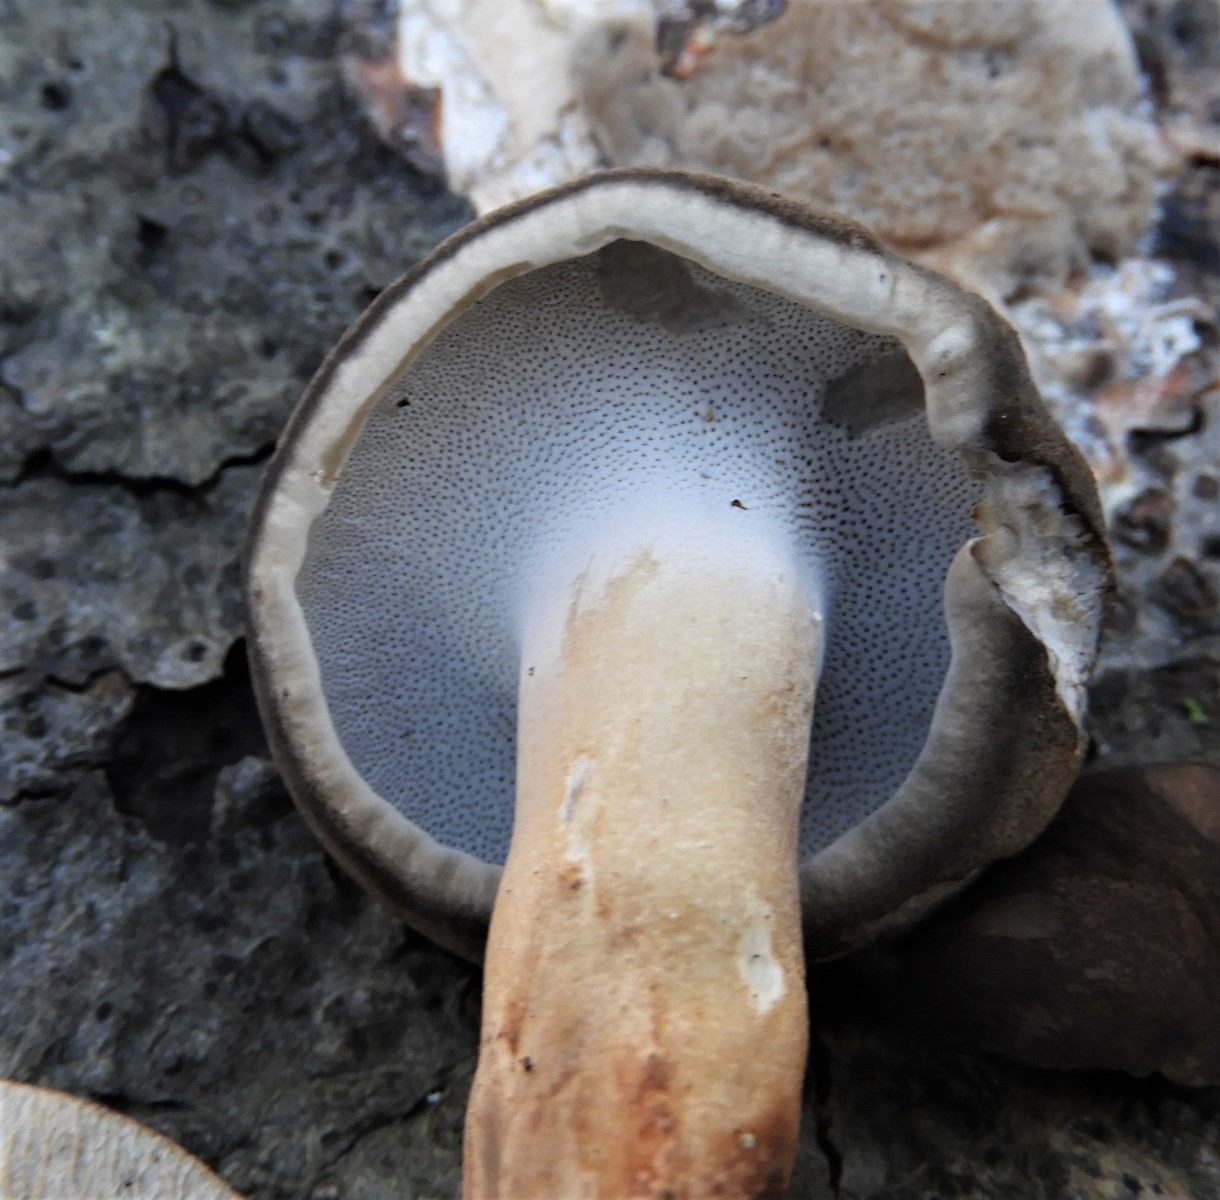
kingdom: Fungi
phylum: Basidiomycota
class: Agaricomycetes
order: Polyporales
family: Polyporaceae
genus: Lentinus
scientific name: Lentinus brumalis
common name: vinter-stilkporesvamp
